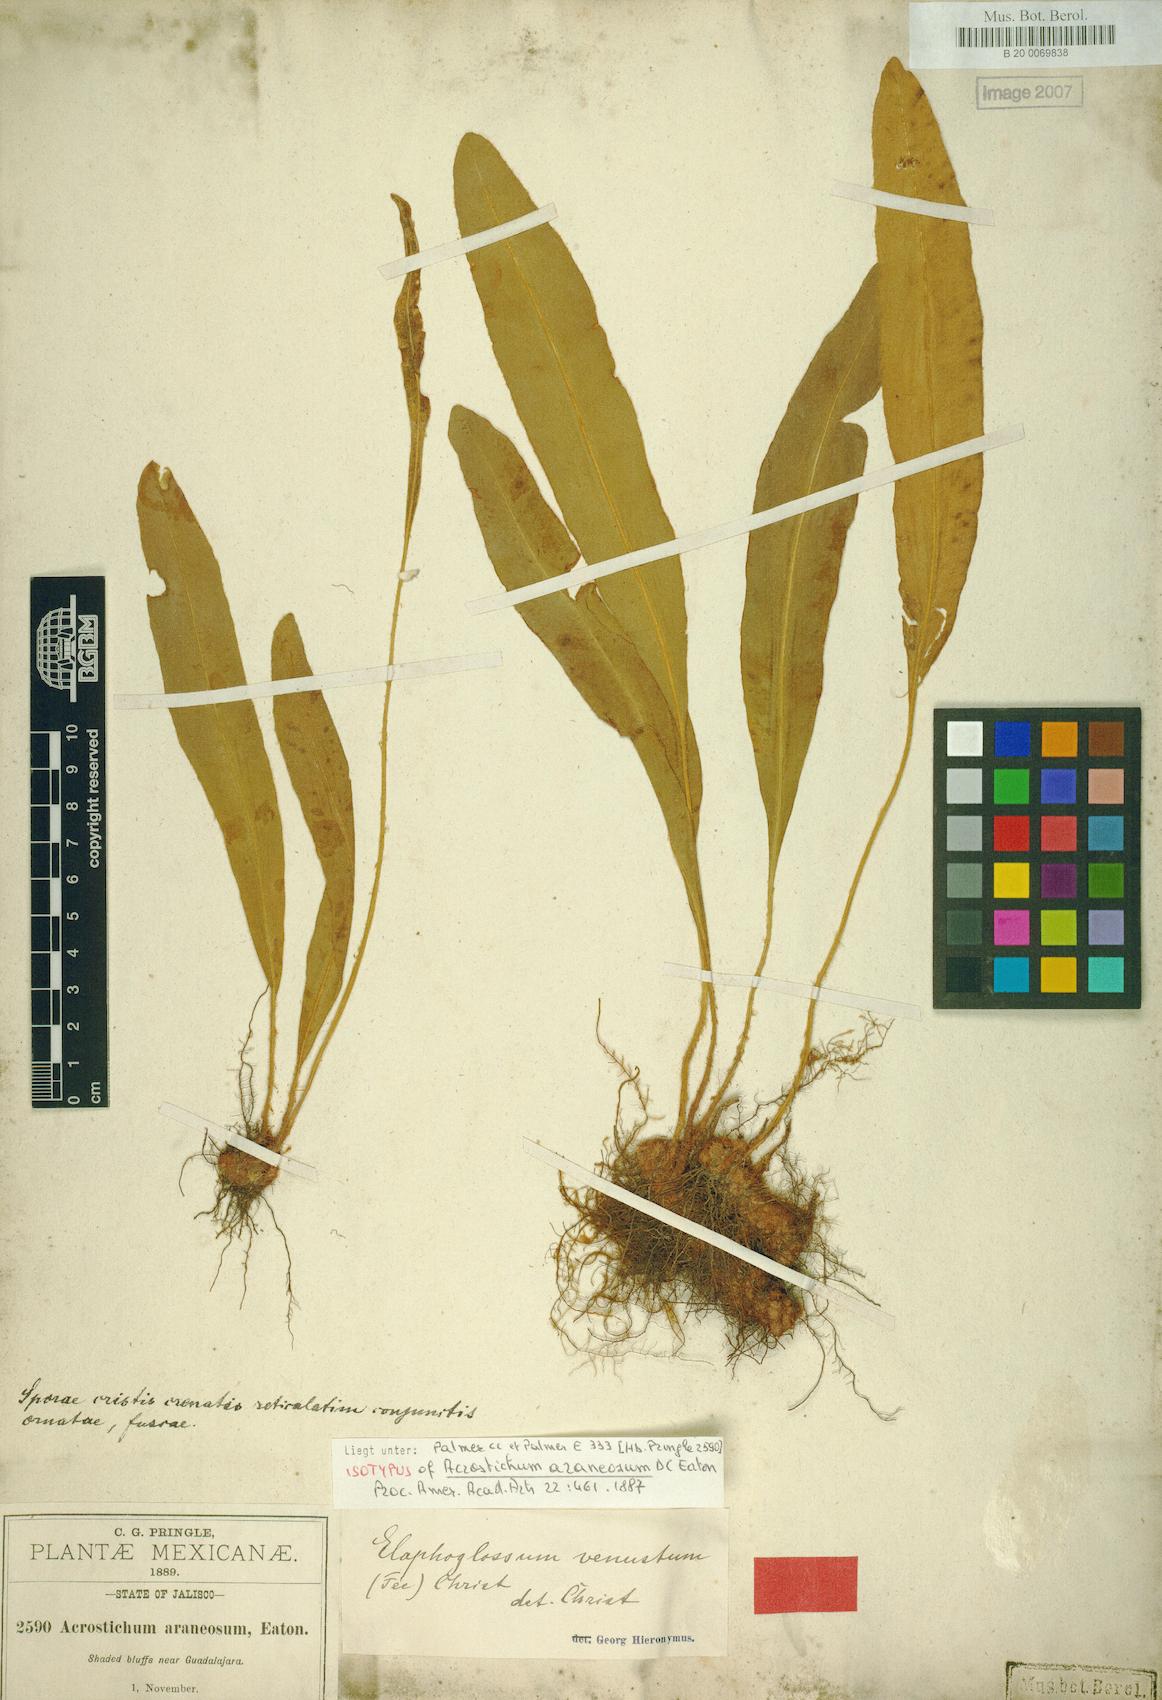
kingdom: Plantae
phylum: Tracheophyta
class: Polypodiopsida
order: Polypodiales
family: Dryopteridaceae
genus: Elaphoglossum
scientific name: Elaphoglossum muelleri
